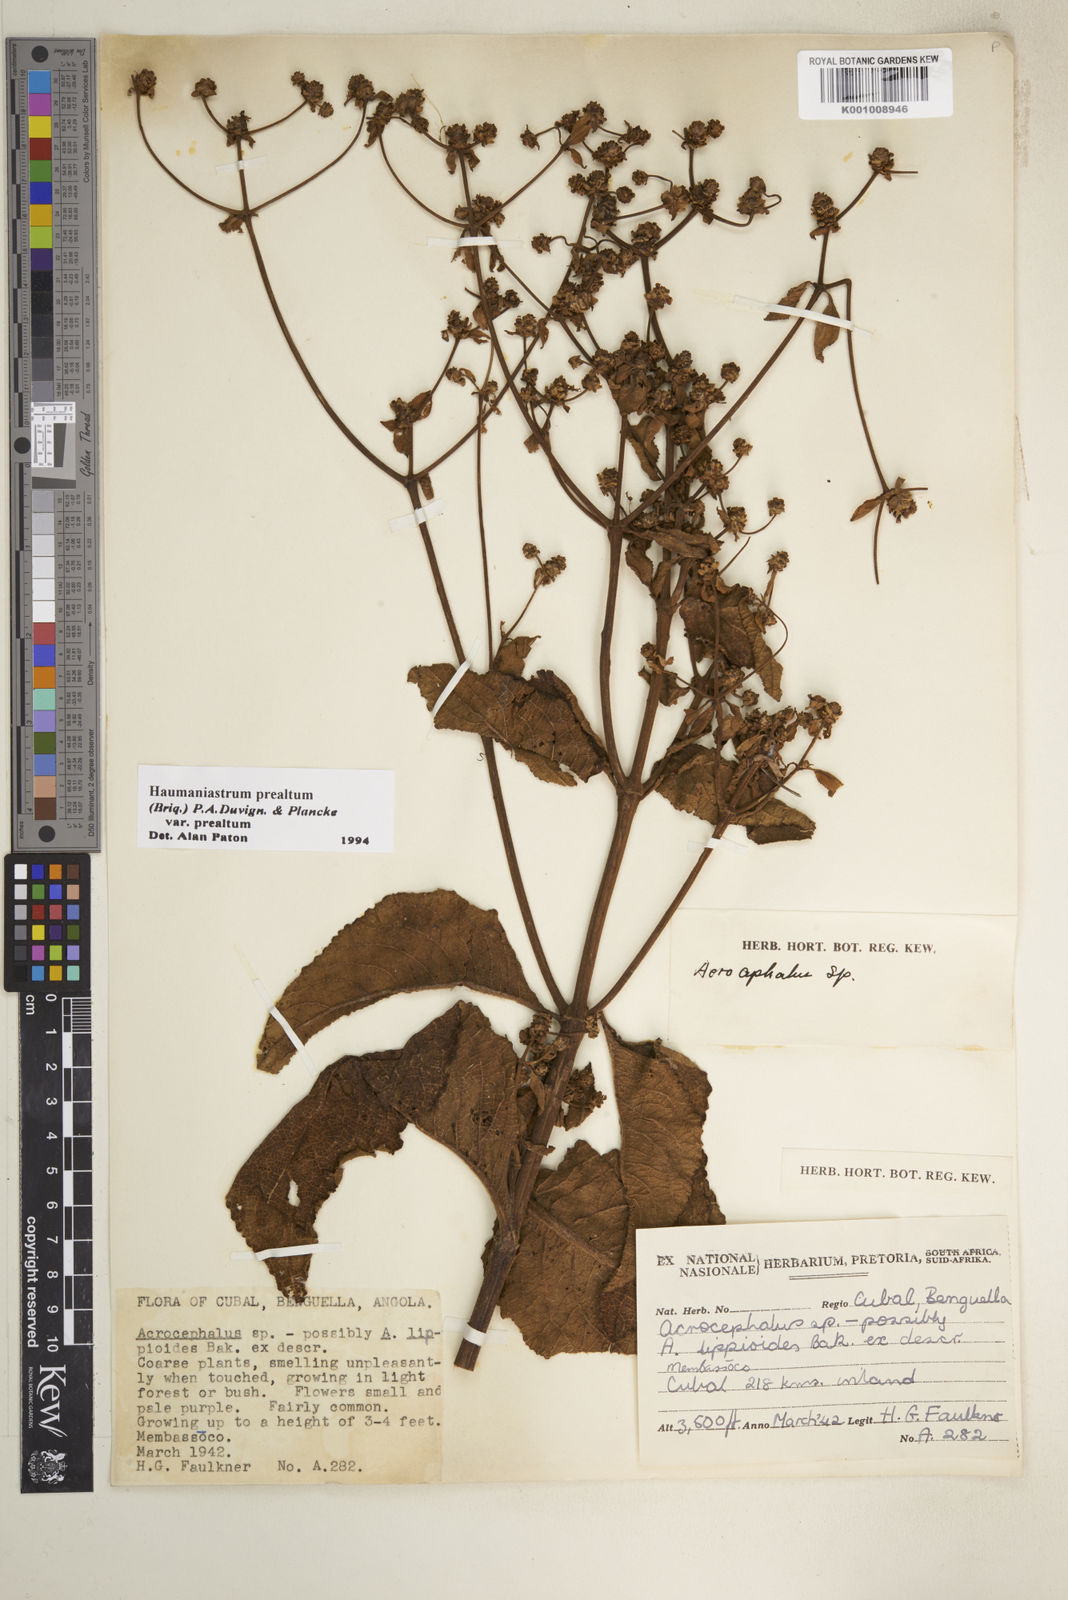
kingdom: Plantae
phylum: Tracheophyta
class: Magnoliopsida
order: Lamiales
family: Lamiaceae
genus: Haumaniastrum
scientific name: Haumaniastrum
